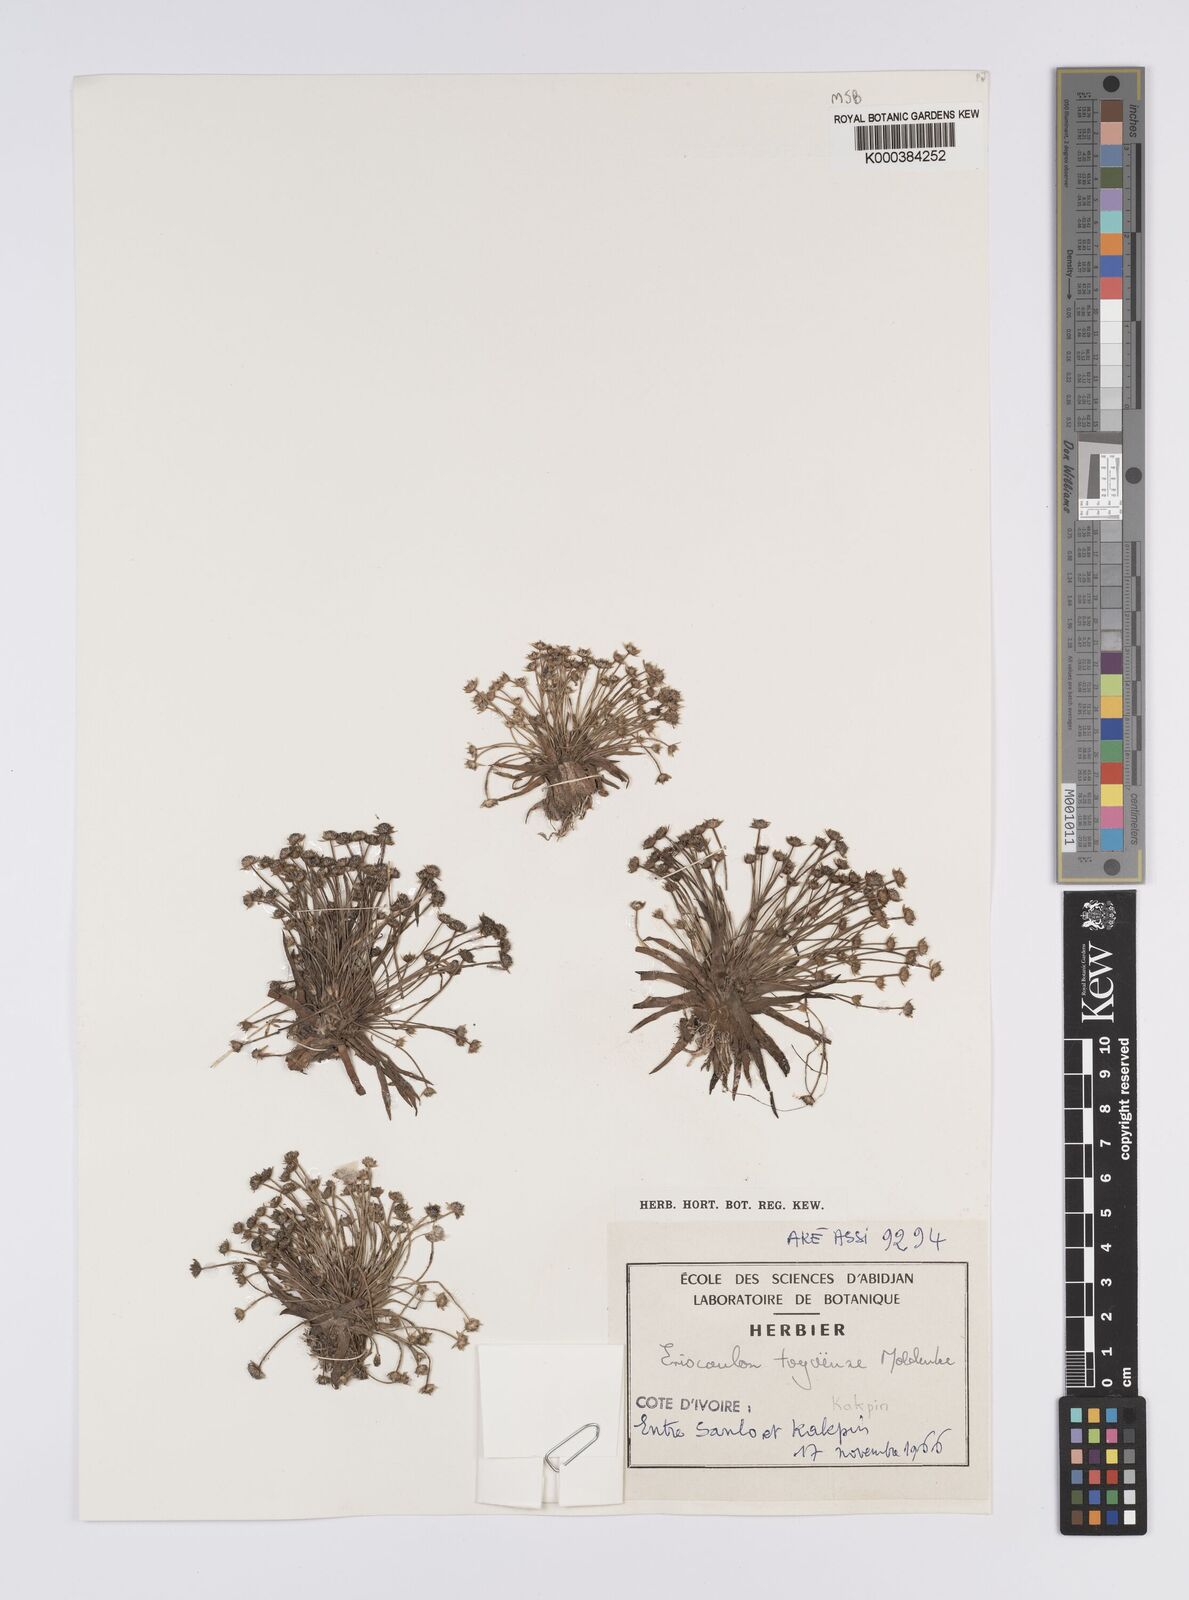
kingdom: Plantae
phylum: Tracheophyta
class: Liliopsida
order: Poales
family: Eriocaulaceae
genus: Eriocaulon
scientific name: Eriocaulon togoense
